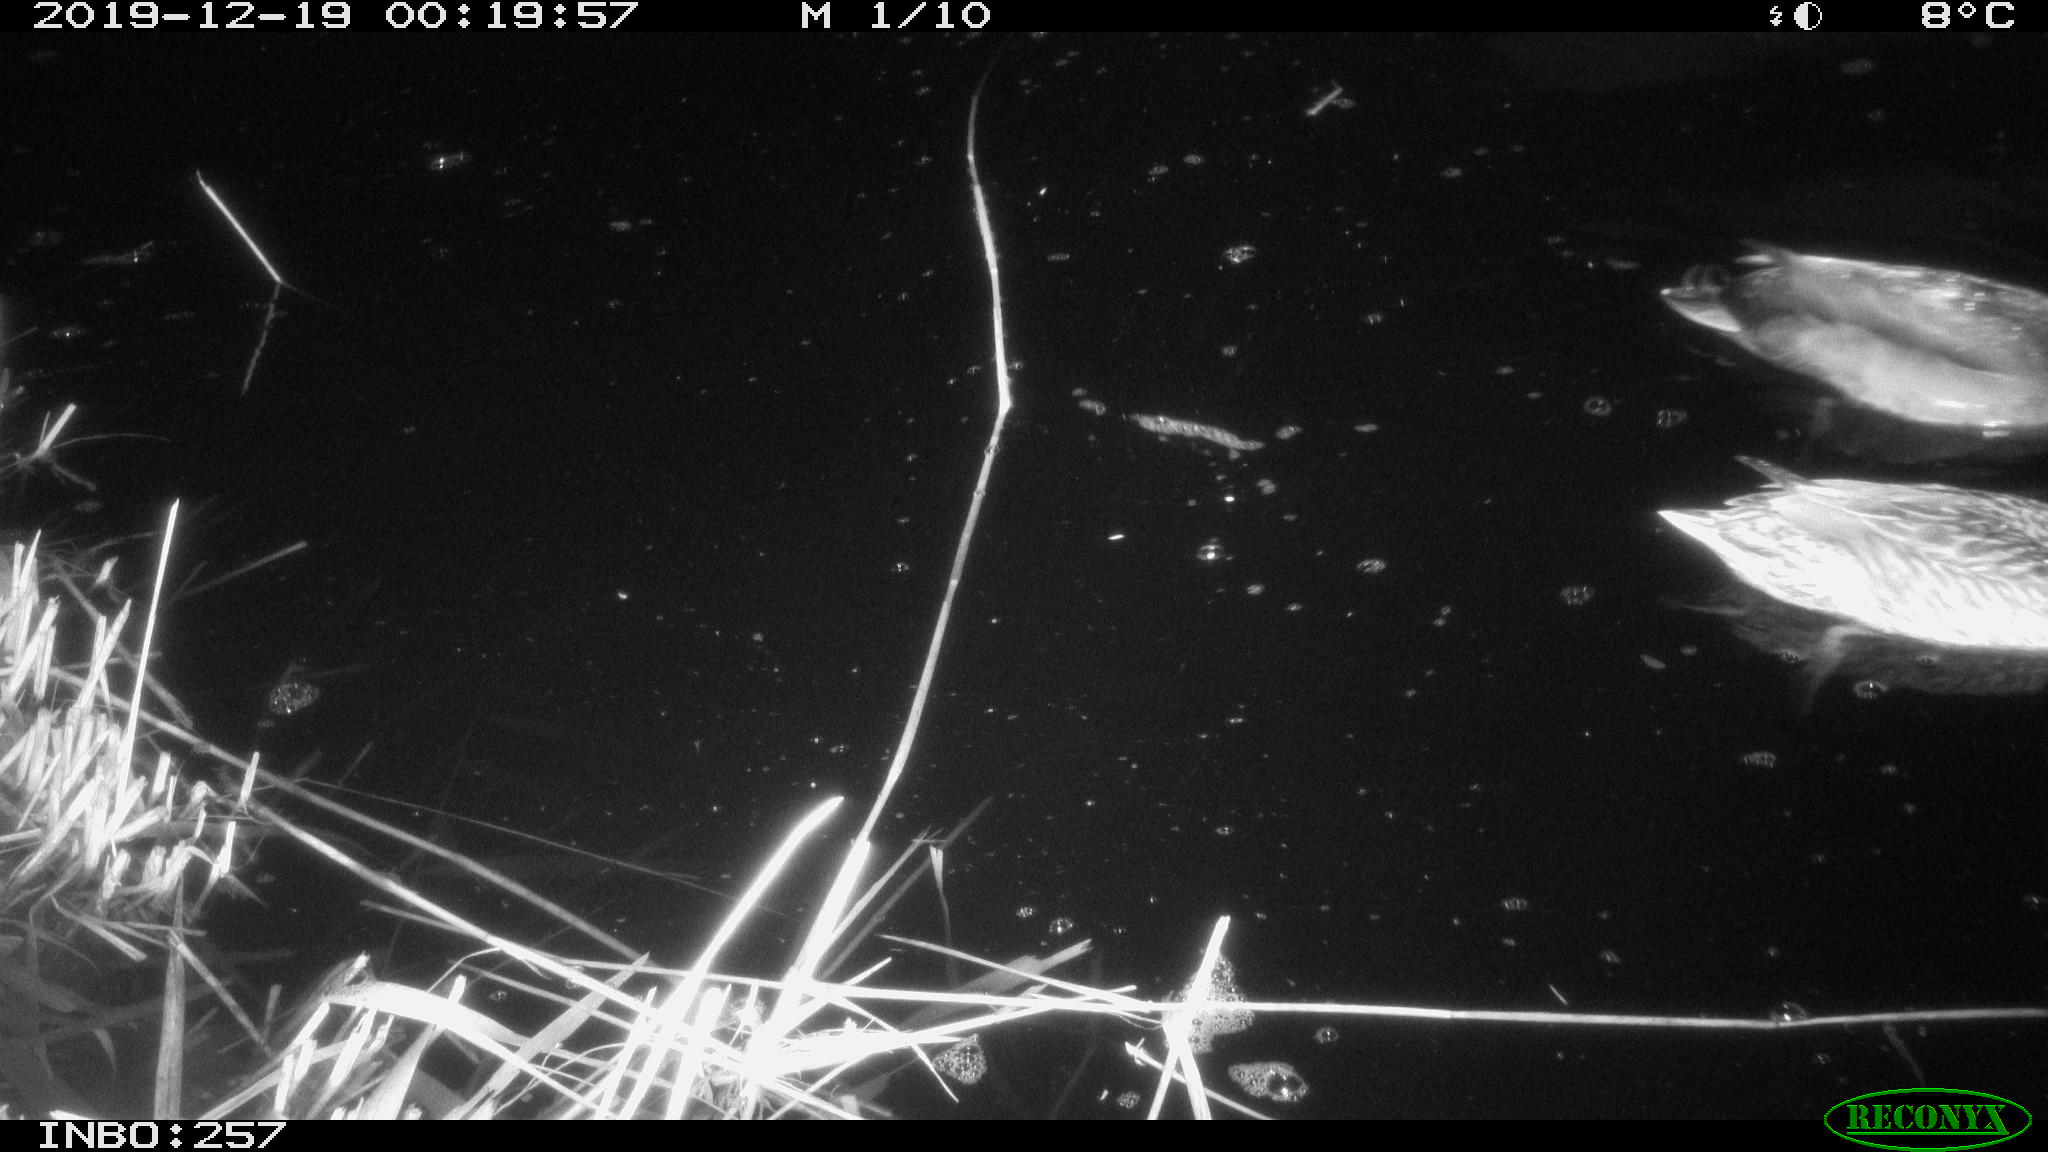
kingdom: Animalia
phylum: Chordata
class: Aves
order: Anseriformes
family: Anatidae
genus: Anas
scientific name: Anas platyrhynchos
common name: Mallard
